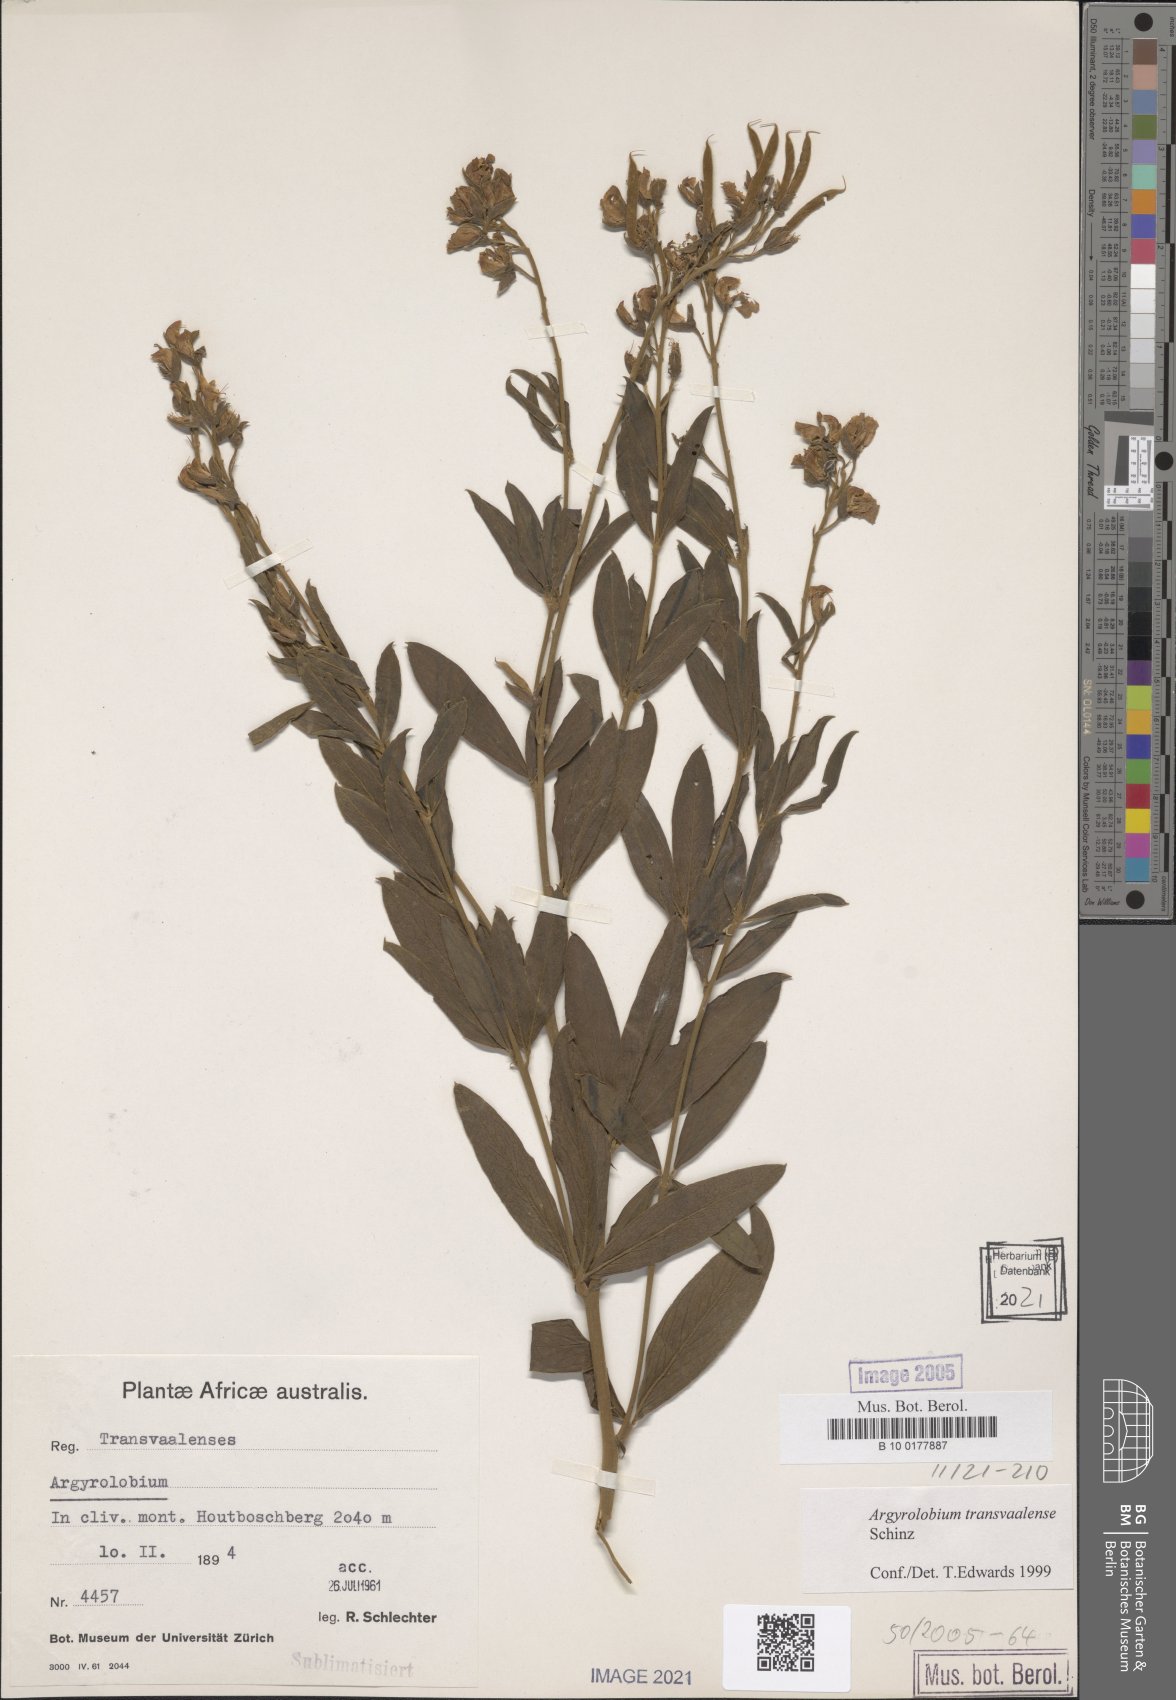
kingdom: Plantae
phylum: Tracheophyta
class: Magnoliopsida
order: Fabales
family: Fabaceae
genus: Argyrolobium
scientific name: Argyrolobium transvaalense
